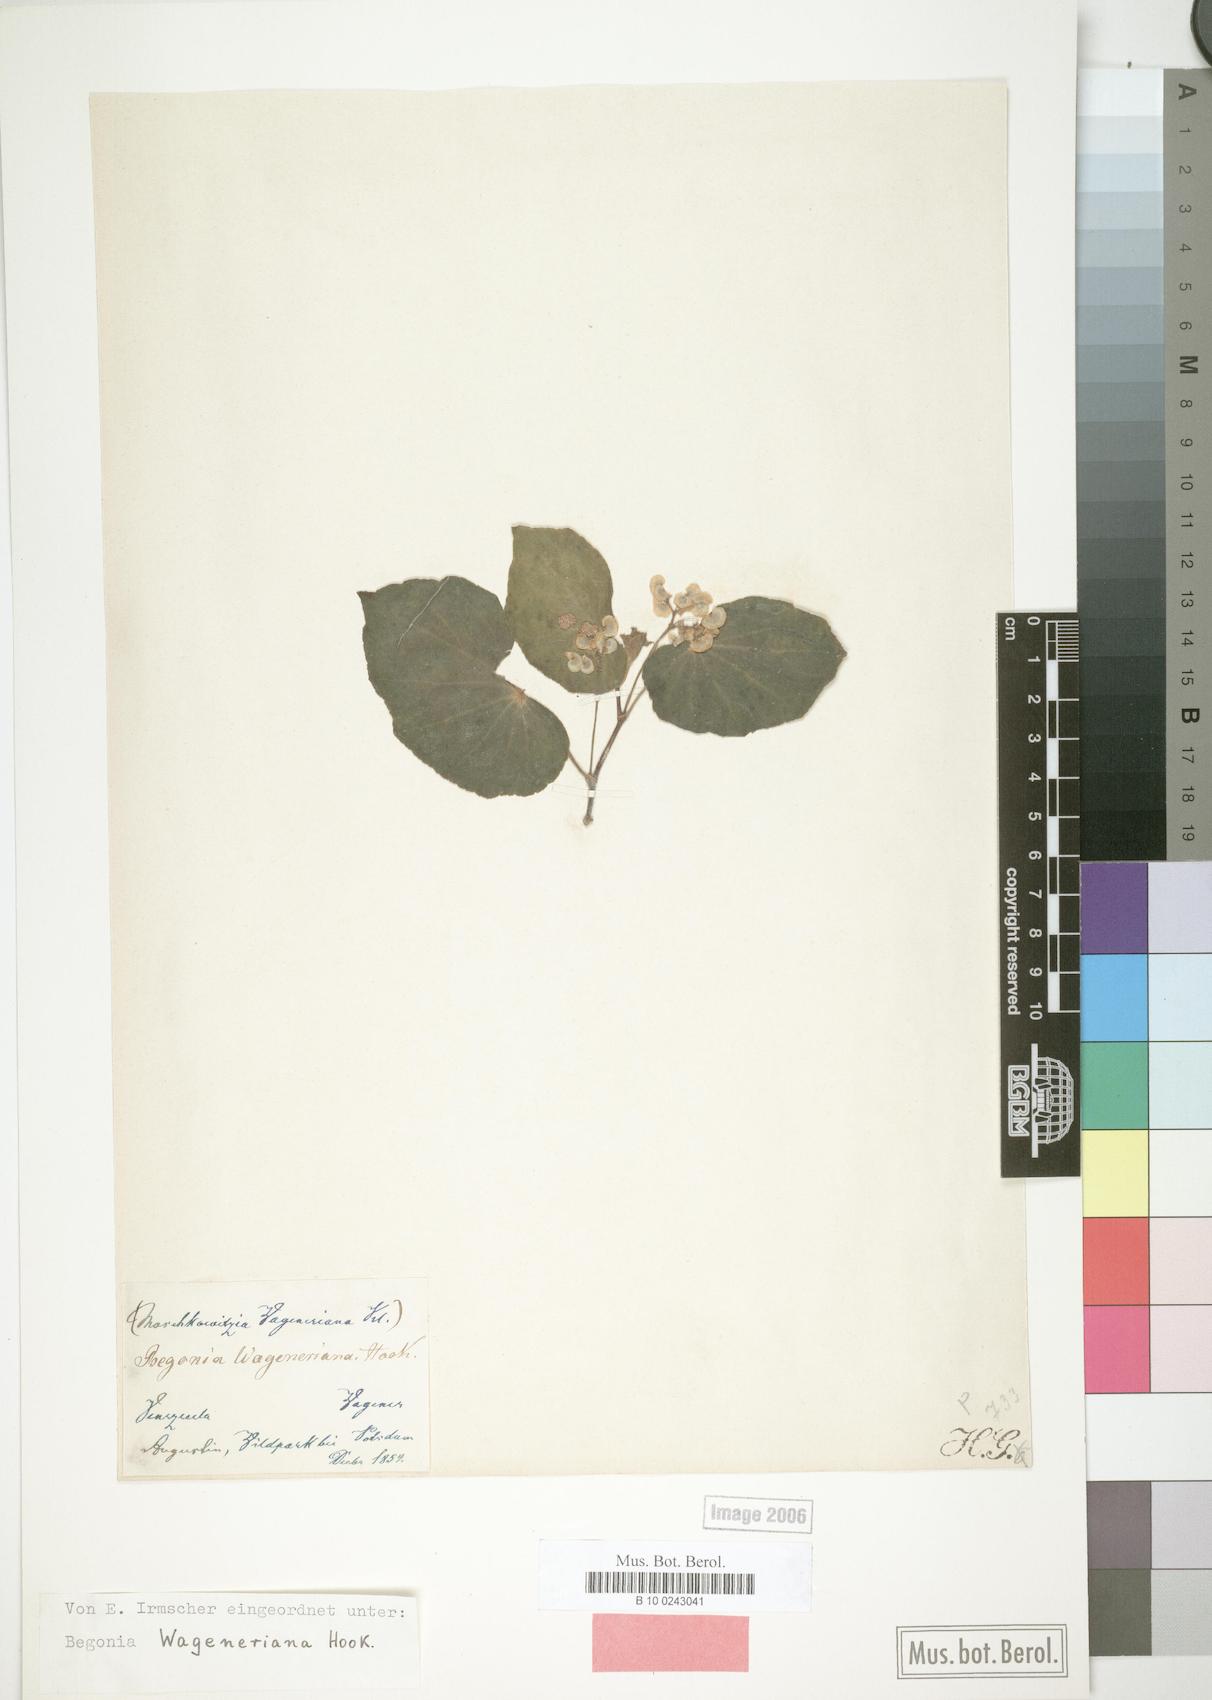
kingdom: Plantae
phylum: Tracheophyta
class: Magnoliopsida
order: Cucurbitales
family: Begoniaceae
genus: Begonia
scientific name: Begonia wageneriana
